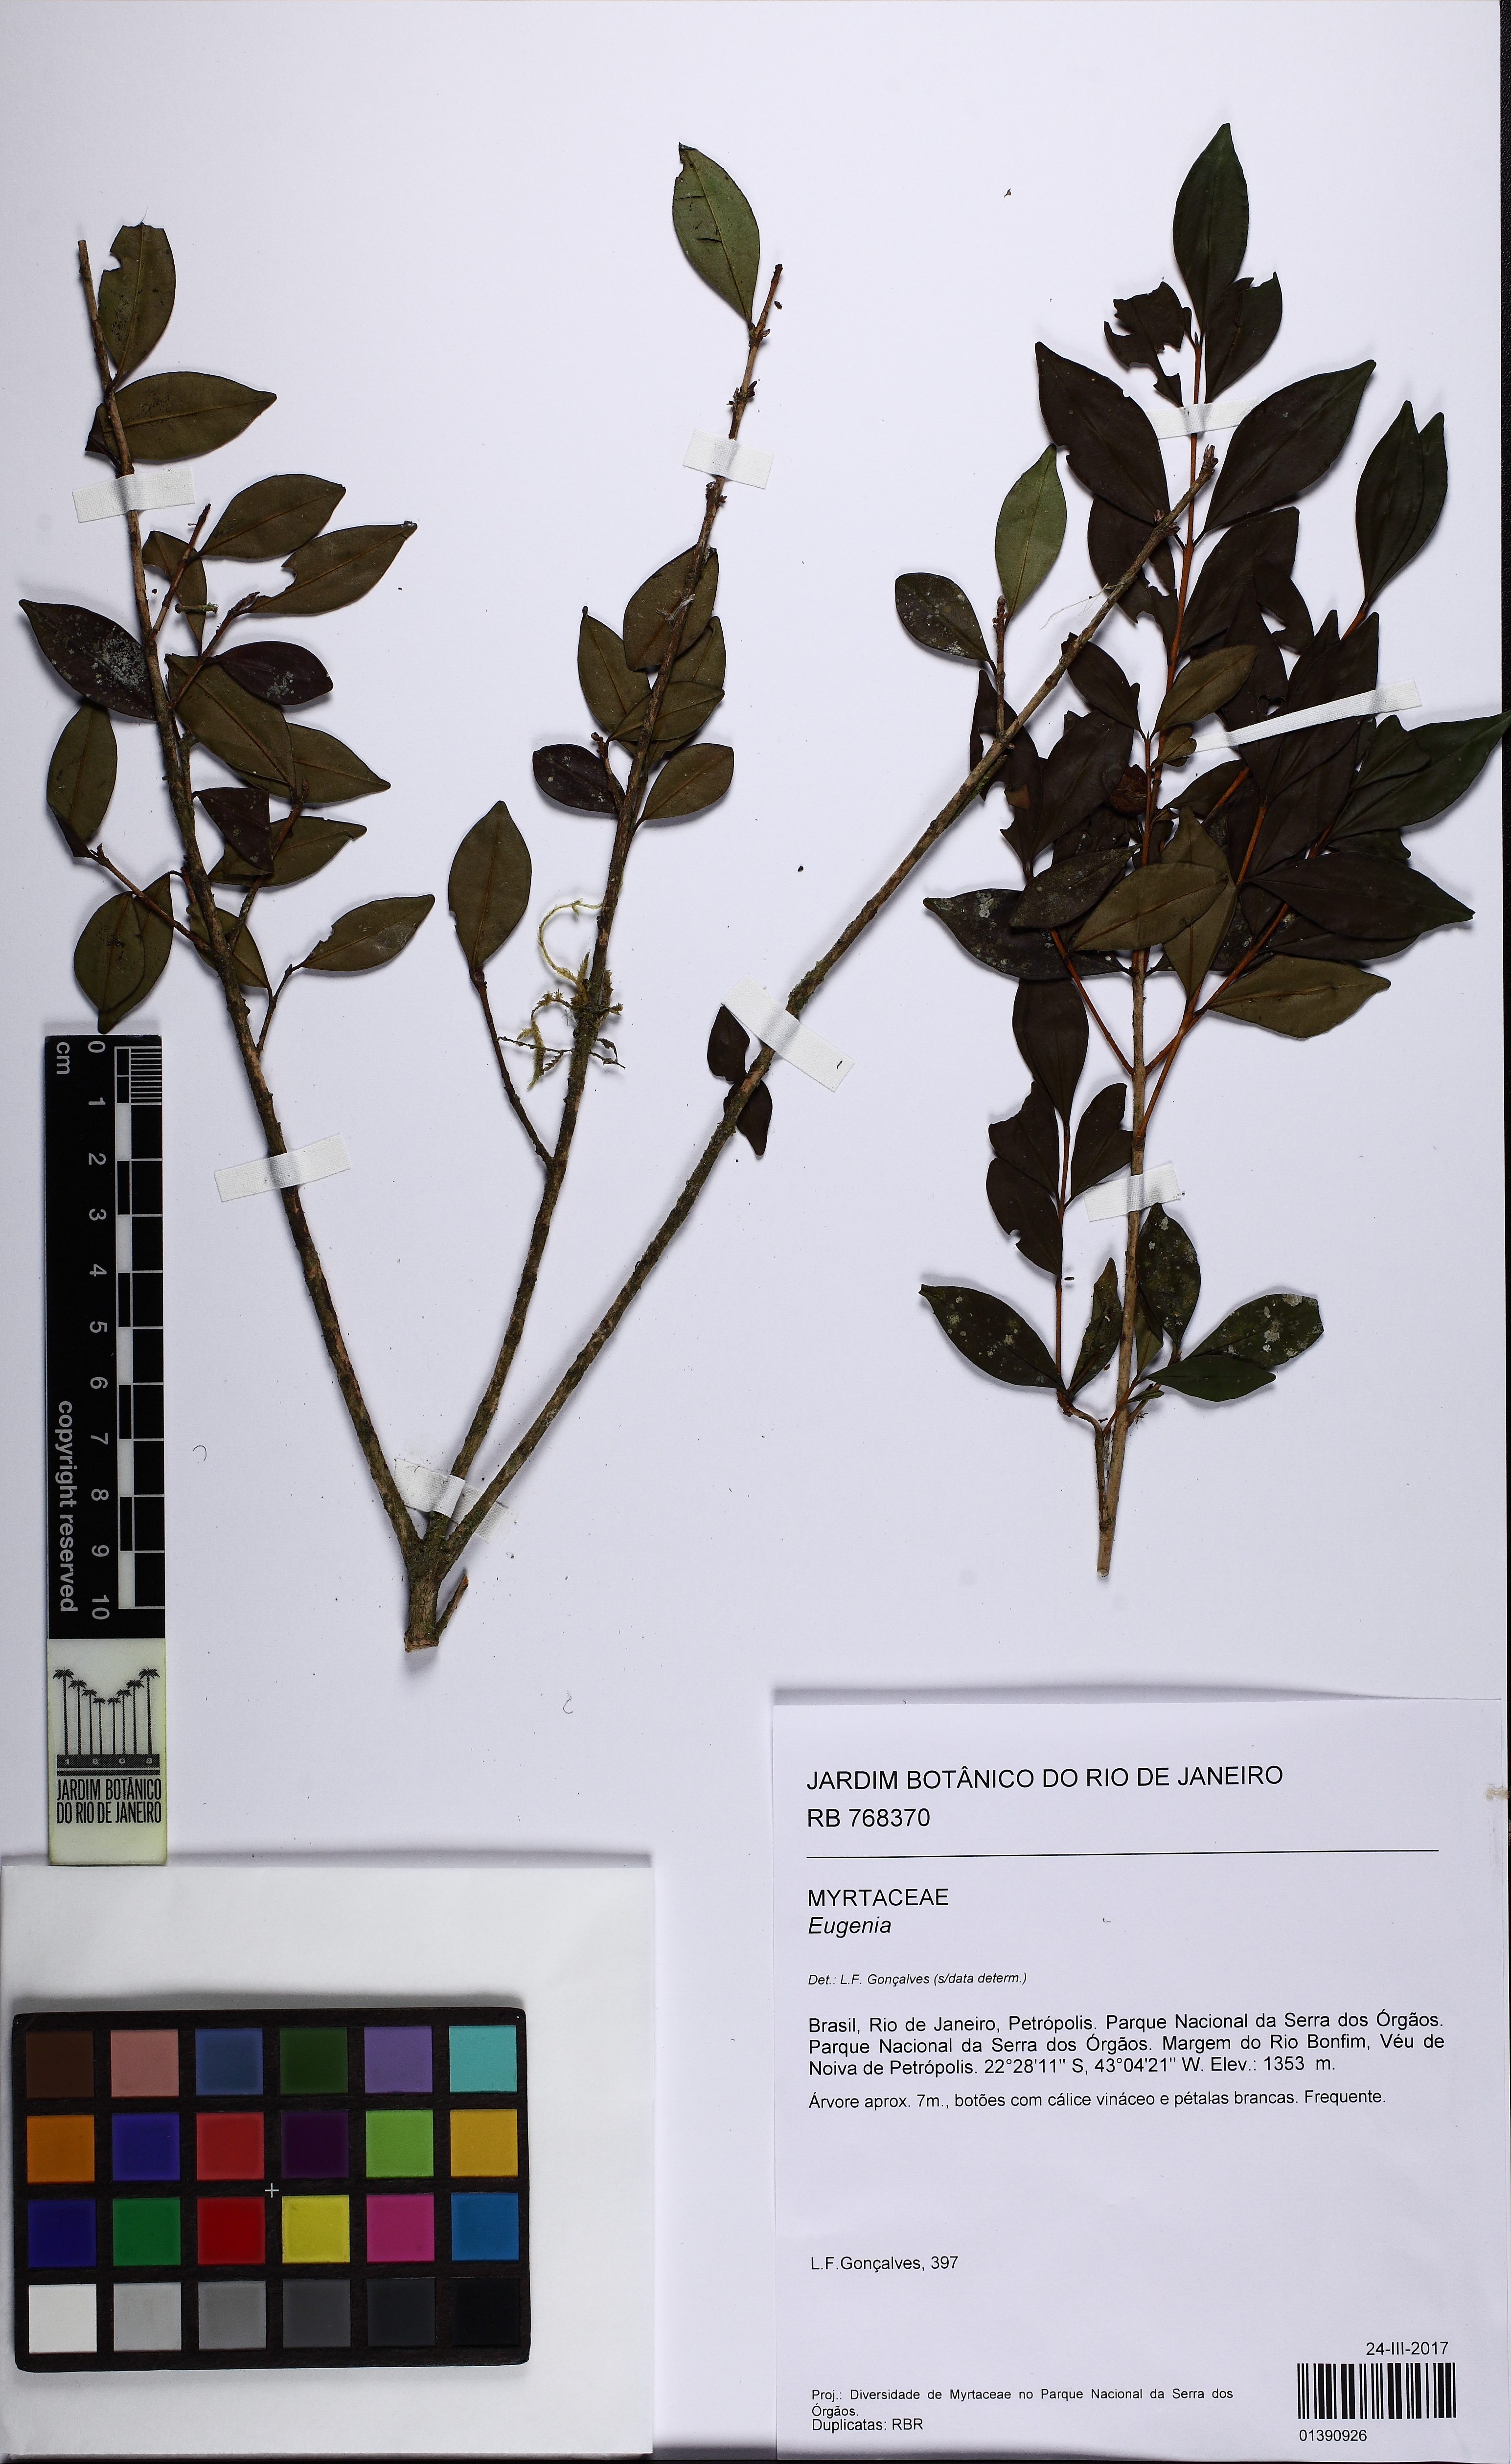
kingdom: Plantae
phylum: Tracheophyta
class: Magnoliopsida
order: Myrtales
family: Myrtaceae
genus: Eugenia
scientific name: Eugenia
